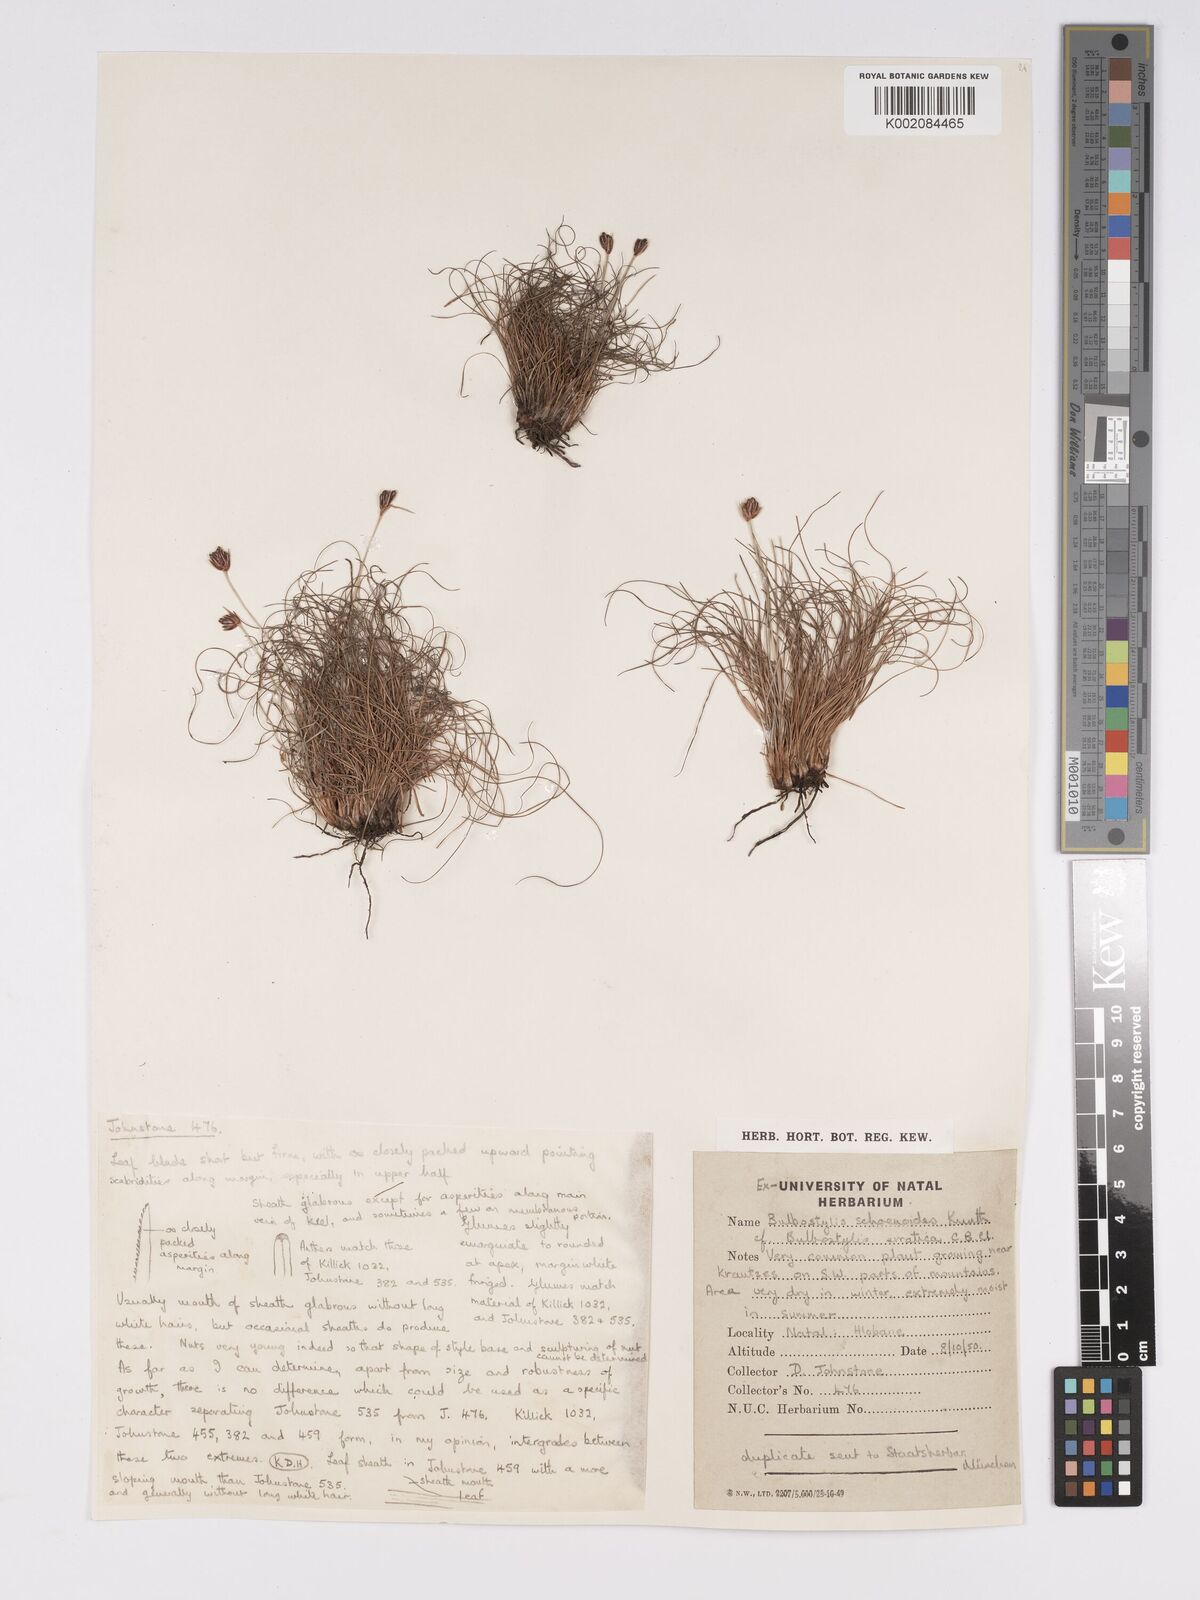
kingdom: Plantae
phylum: Tracheophyta
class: Liliopsida
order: Poales
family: Cyperaceae
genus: Bulbostylis
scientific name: Bulbostylis schoenoides
